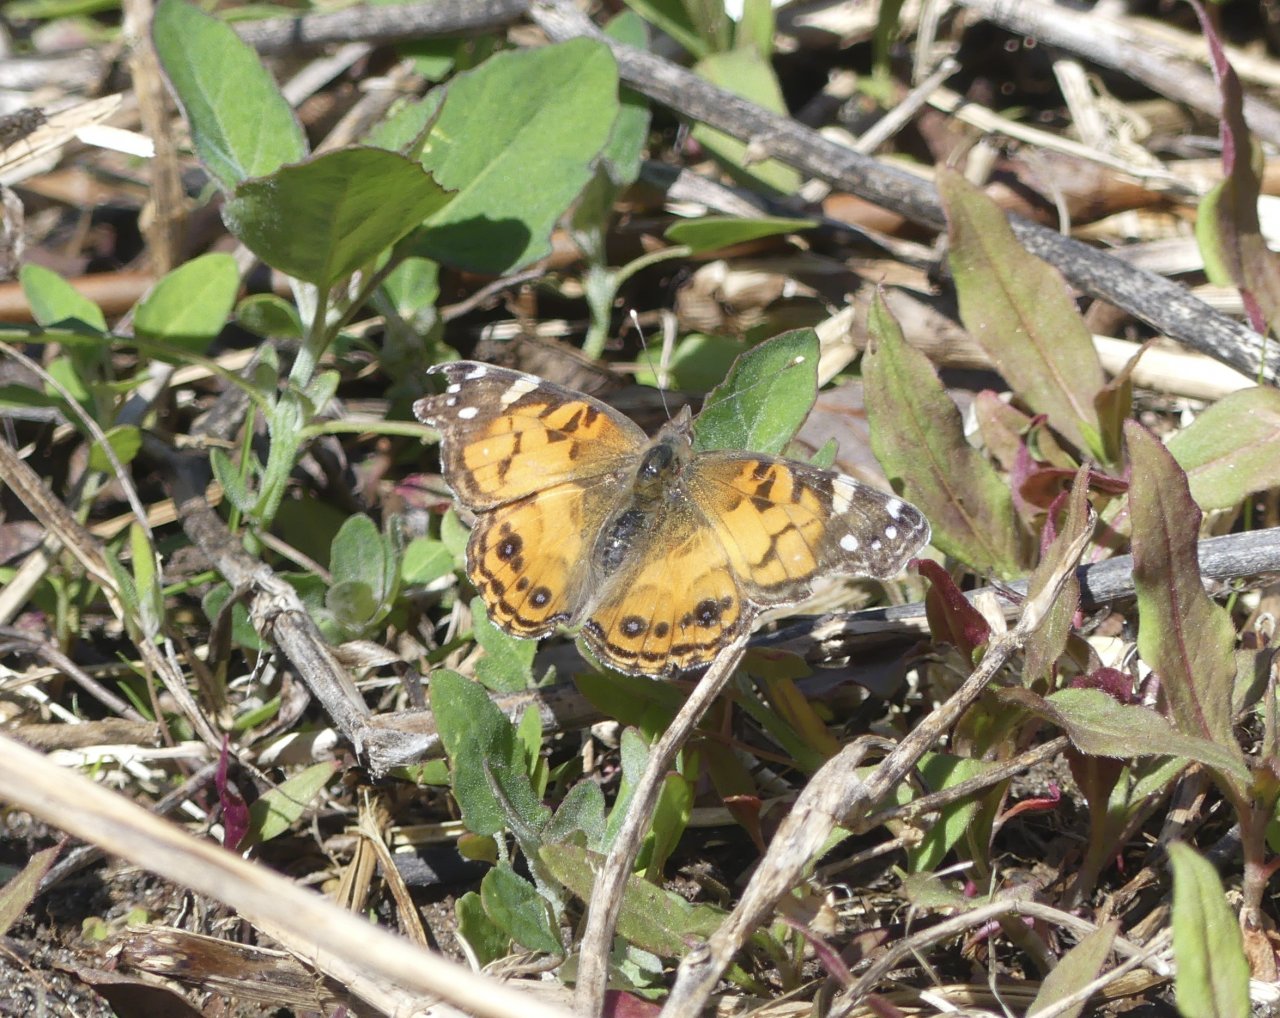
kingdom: Animalia
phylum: Arthropoda
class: Insecta
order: Lepidoptera
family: Nymphalidae
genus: Vanessa
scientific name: Vanessa virginiensis
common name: American Lady
